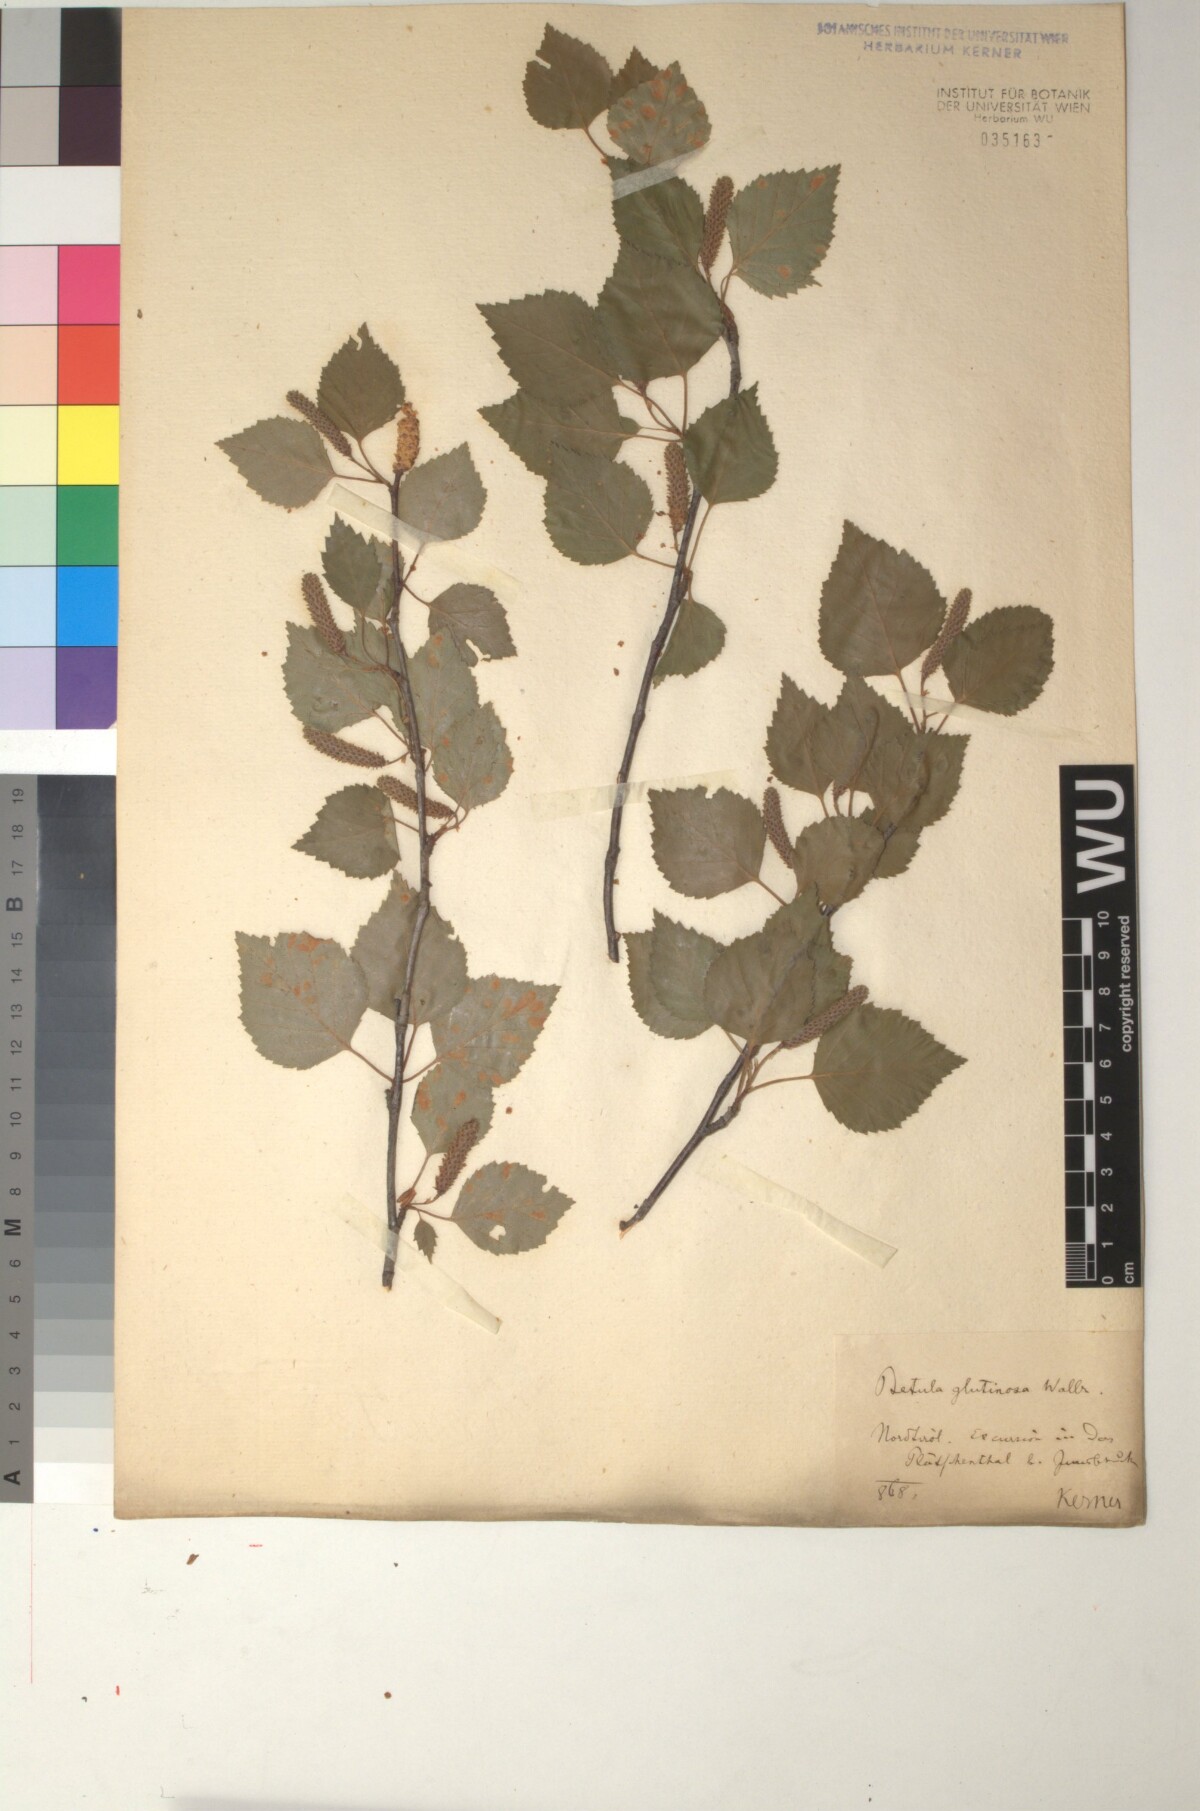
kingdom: Plantae
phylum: Tracheophyta
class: Magnoliopsida
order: Fagales
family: Betulaceae
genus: Betula
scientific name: Betula pubescens
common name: Downy birch
